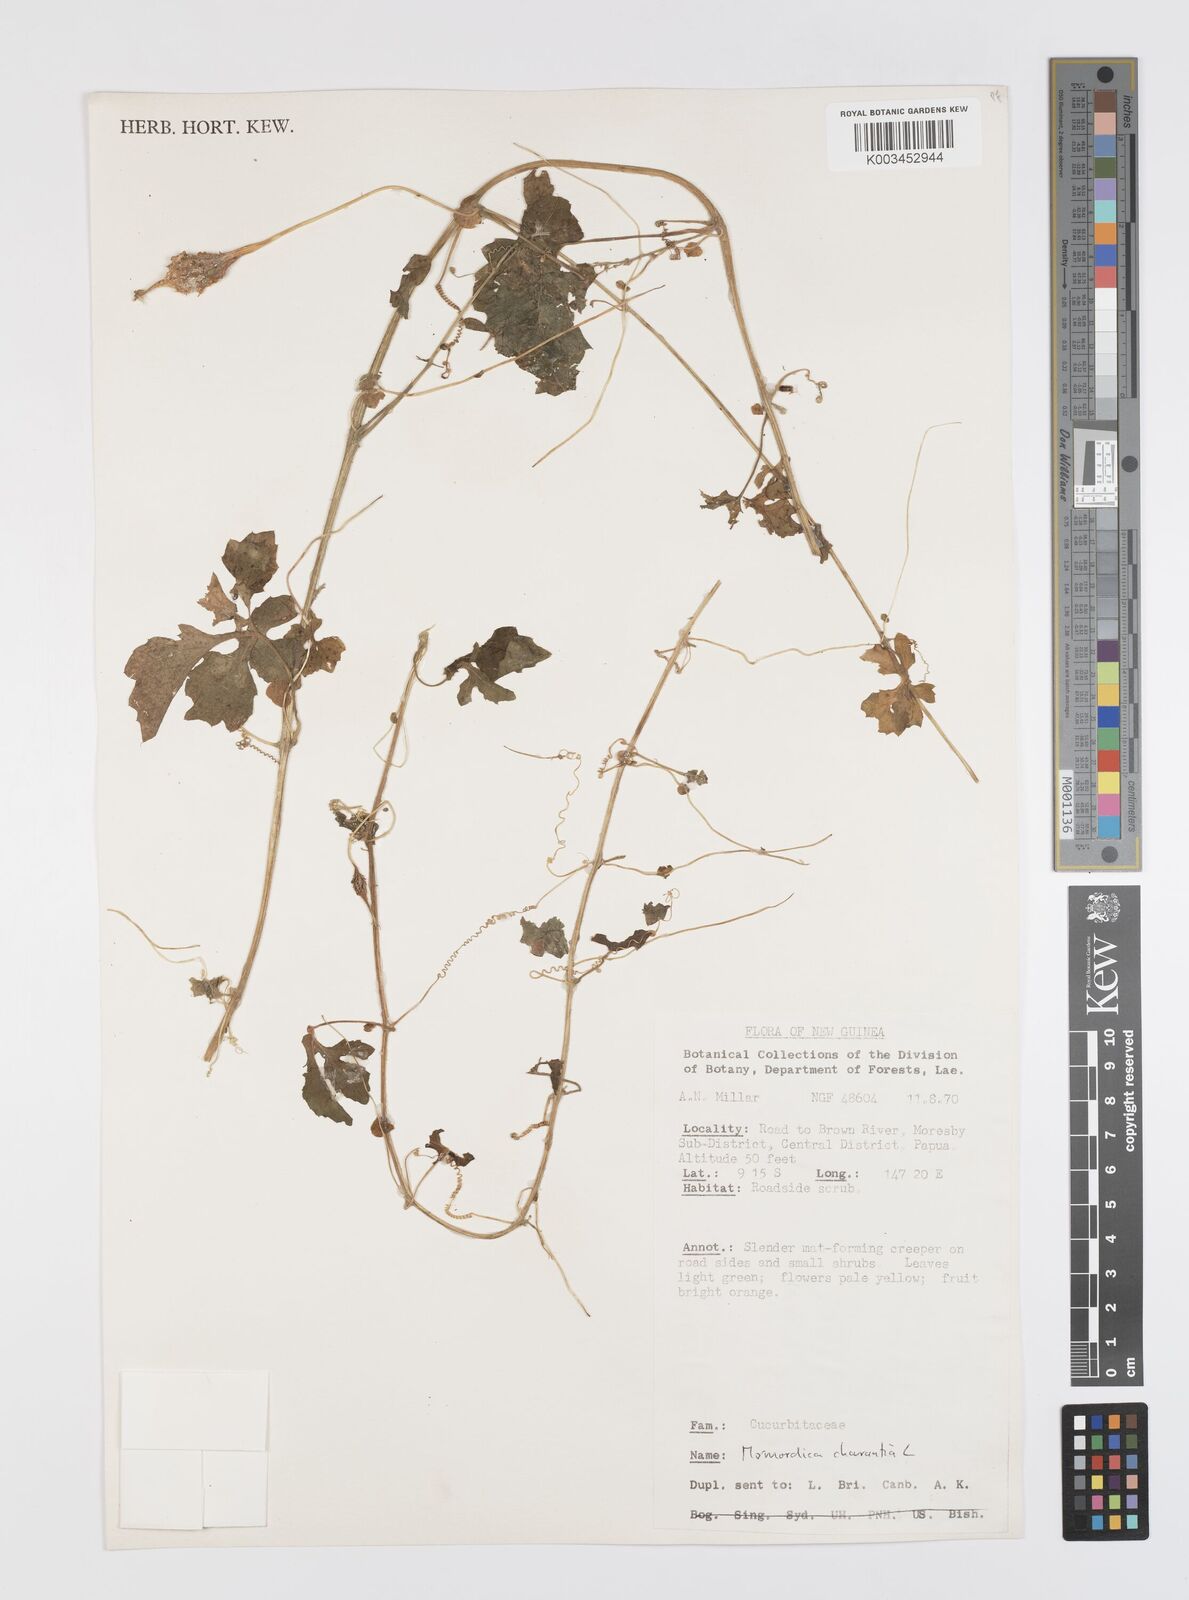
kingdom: Plantae
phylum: Tracheophyta
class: Magnoliopsida
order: Cucurbitales
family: Cucurbitaceae
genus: Momordica
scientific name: Momordica charantia
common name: Balsampear
